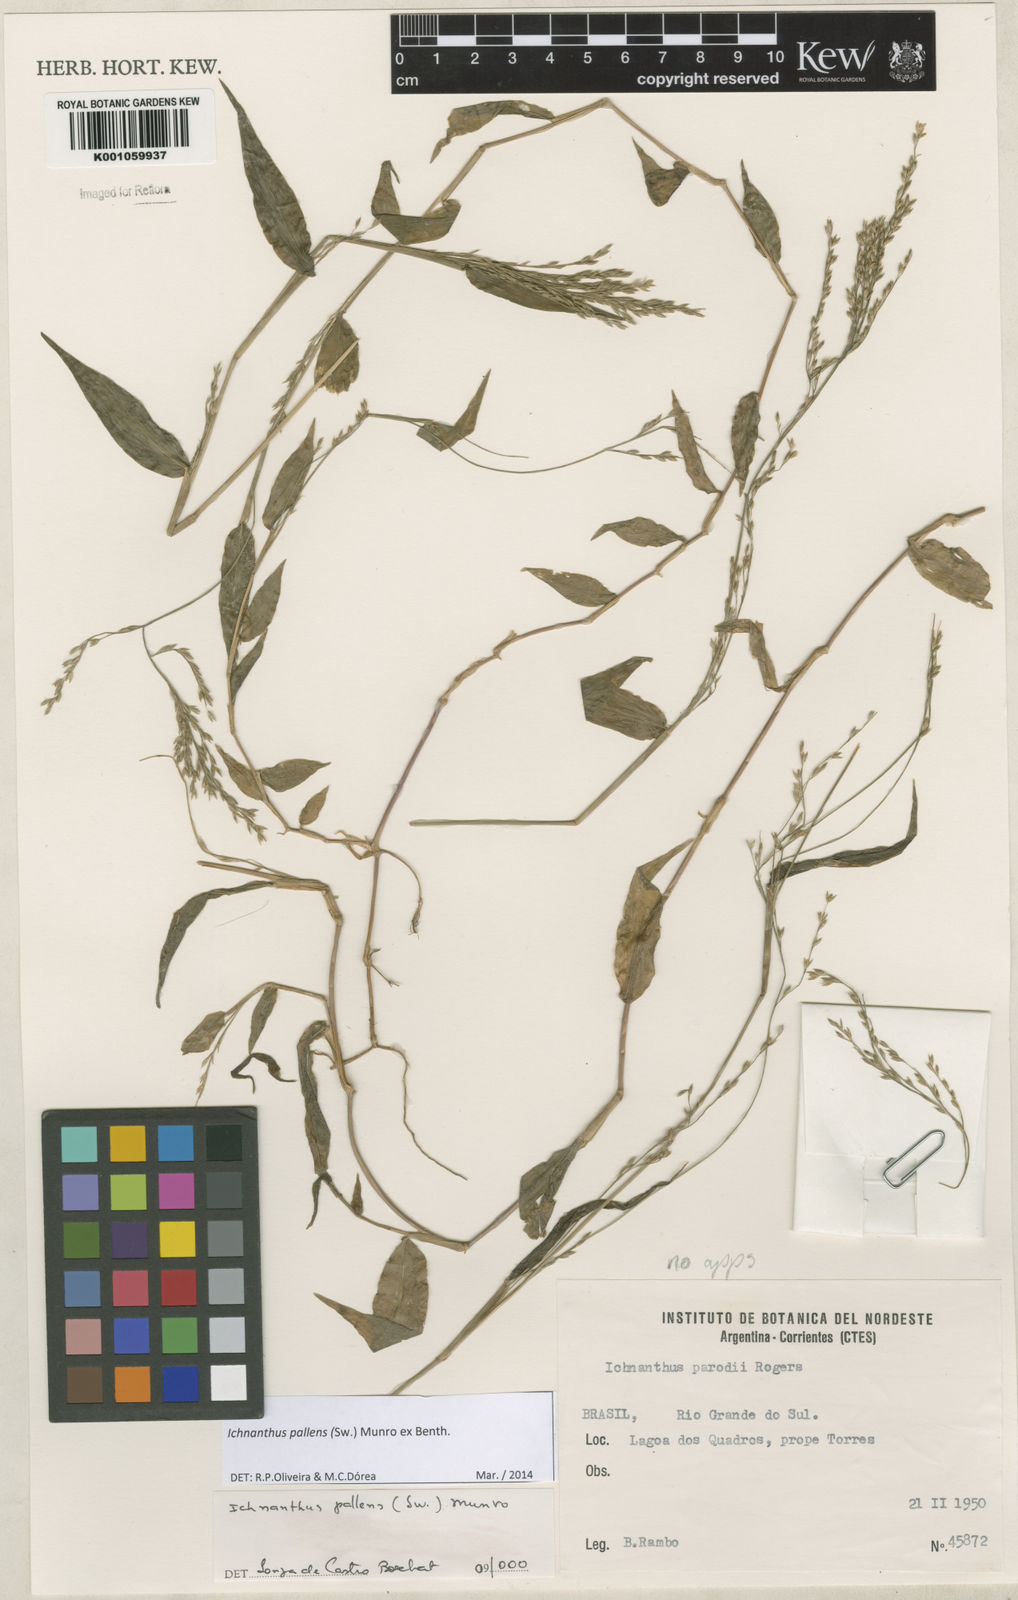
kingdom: Plantae
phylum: Tracheophyta
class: Liliopsida
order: Poales
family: Poaceae
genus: Ichnanthus
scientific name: Ichnanthus pallens
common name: Water grass
